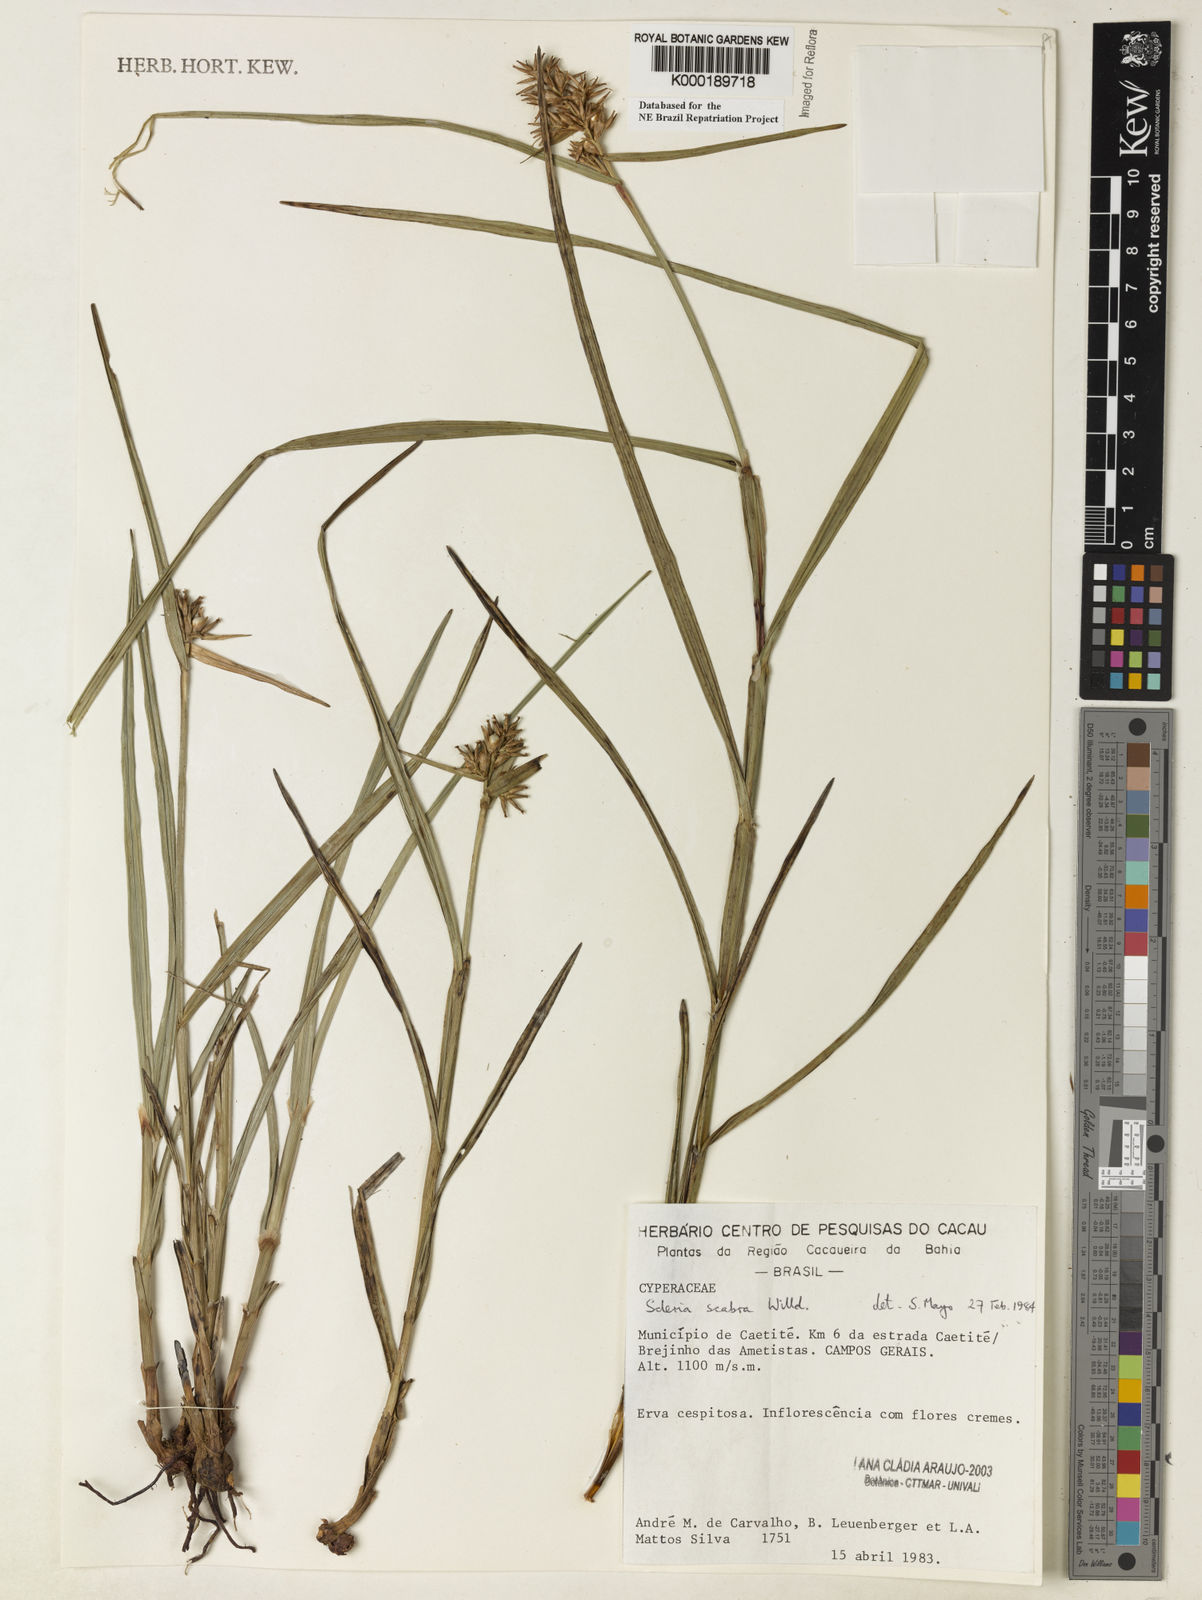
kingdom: Plantae
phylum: Tracheophyta
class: Liliopsida
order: Poales
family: Cyperaceae
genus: Scleria
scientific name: Scleria scabra
